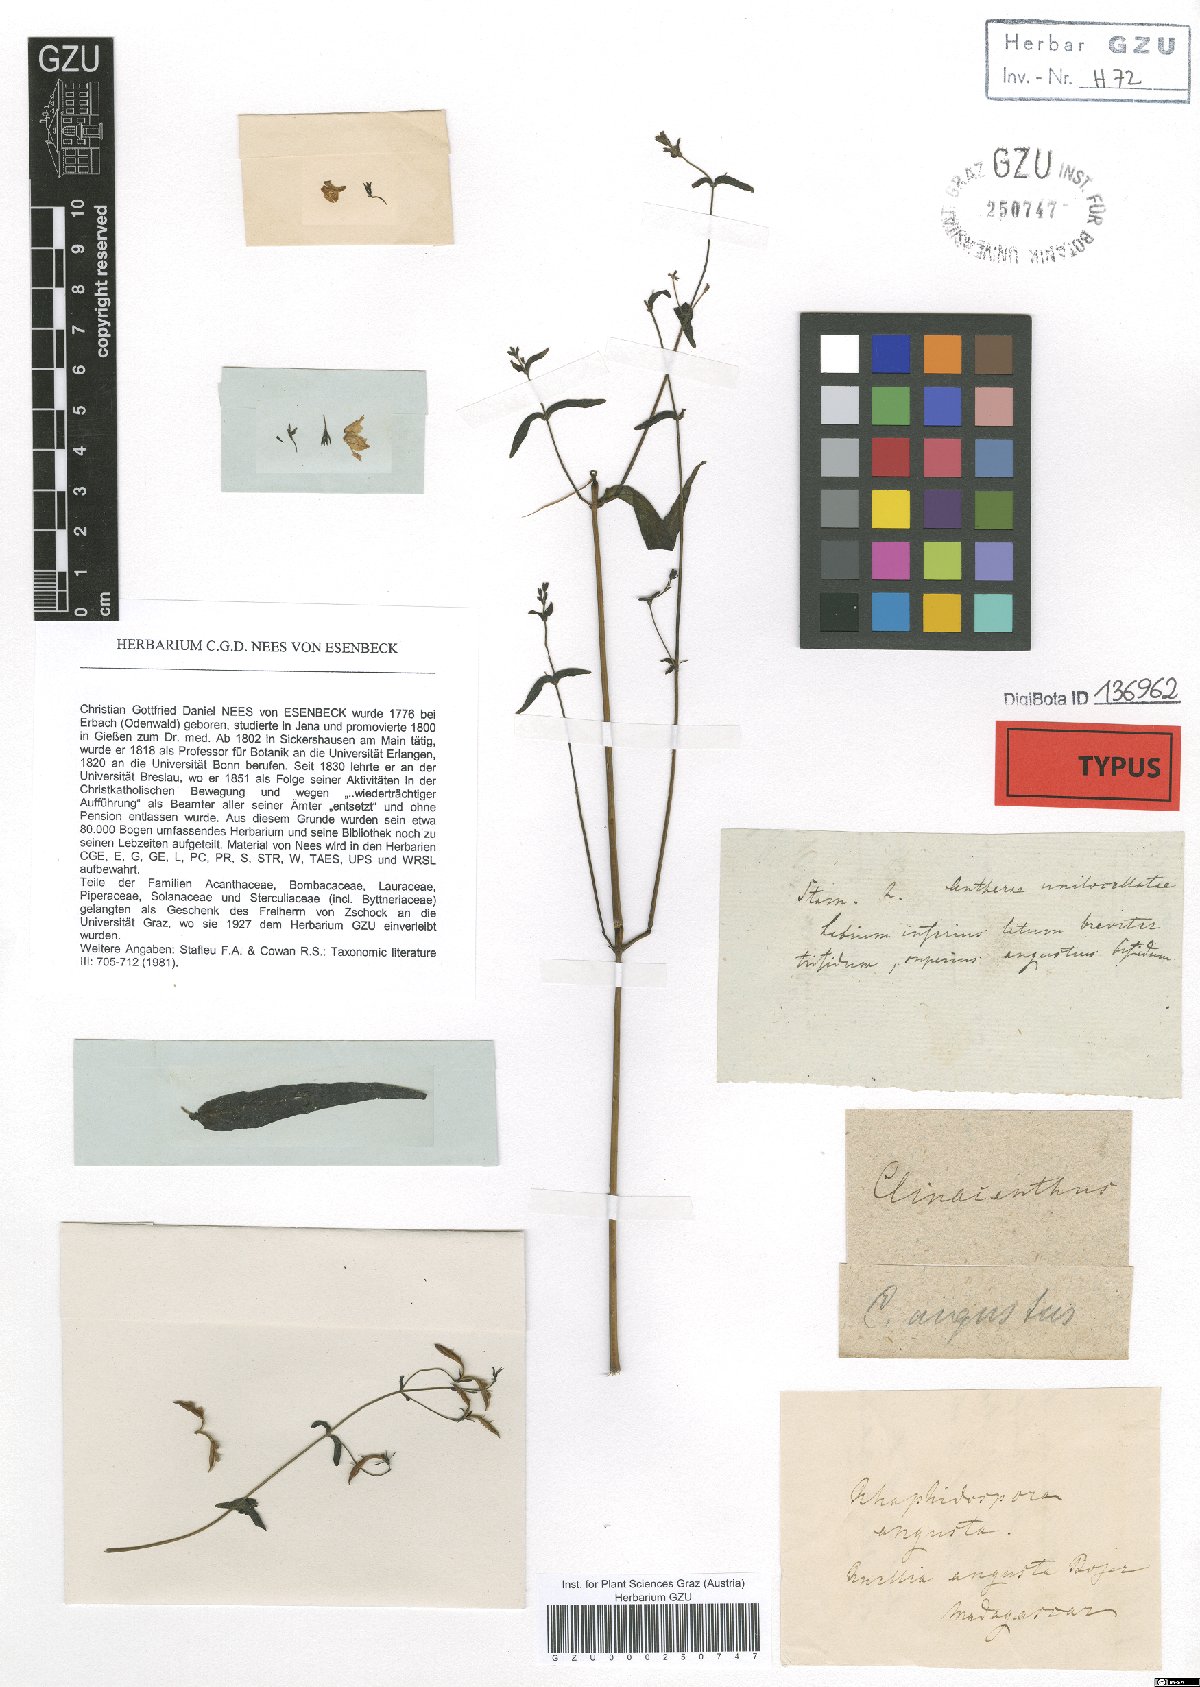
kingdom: Plantae
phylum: Tracheophyta
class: Magnoliopsida
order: Lamiales
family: Acanthaceae
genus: Isoglossa
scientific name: Isoglossa angusta
